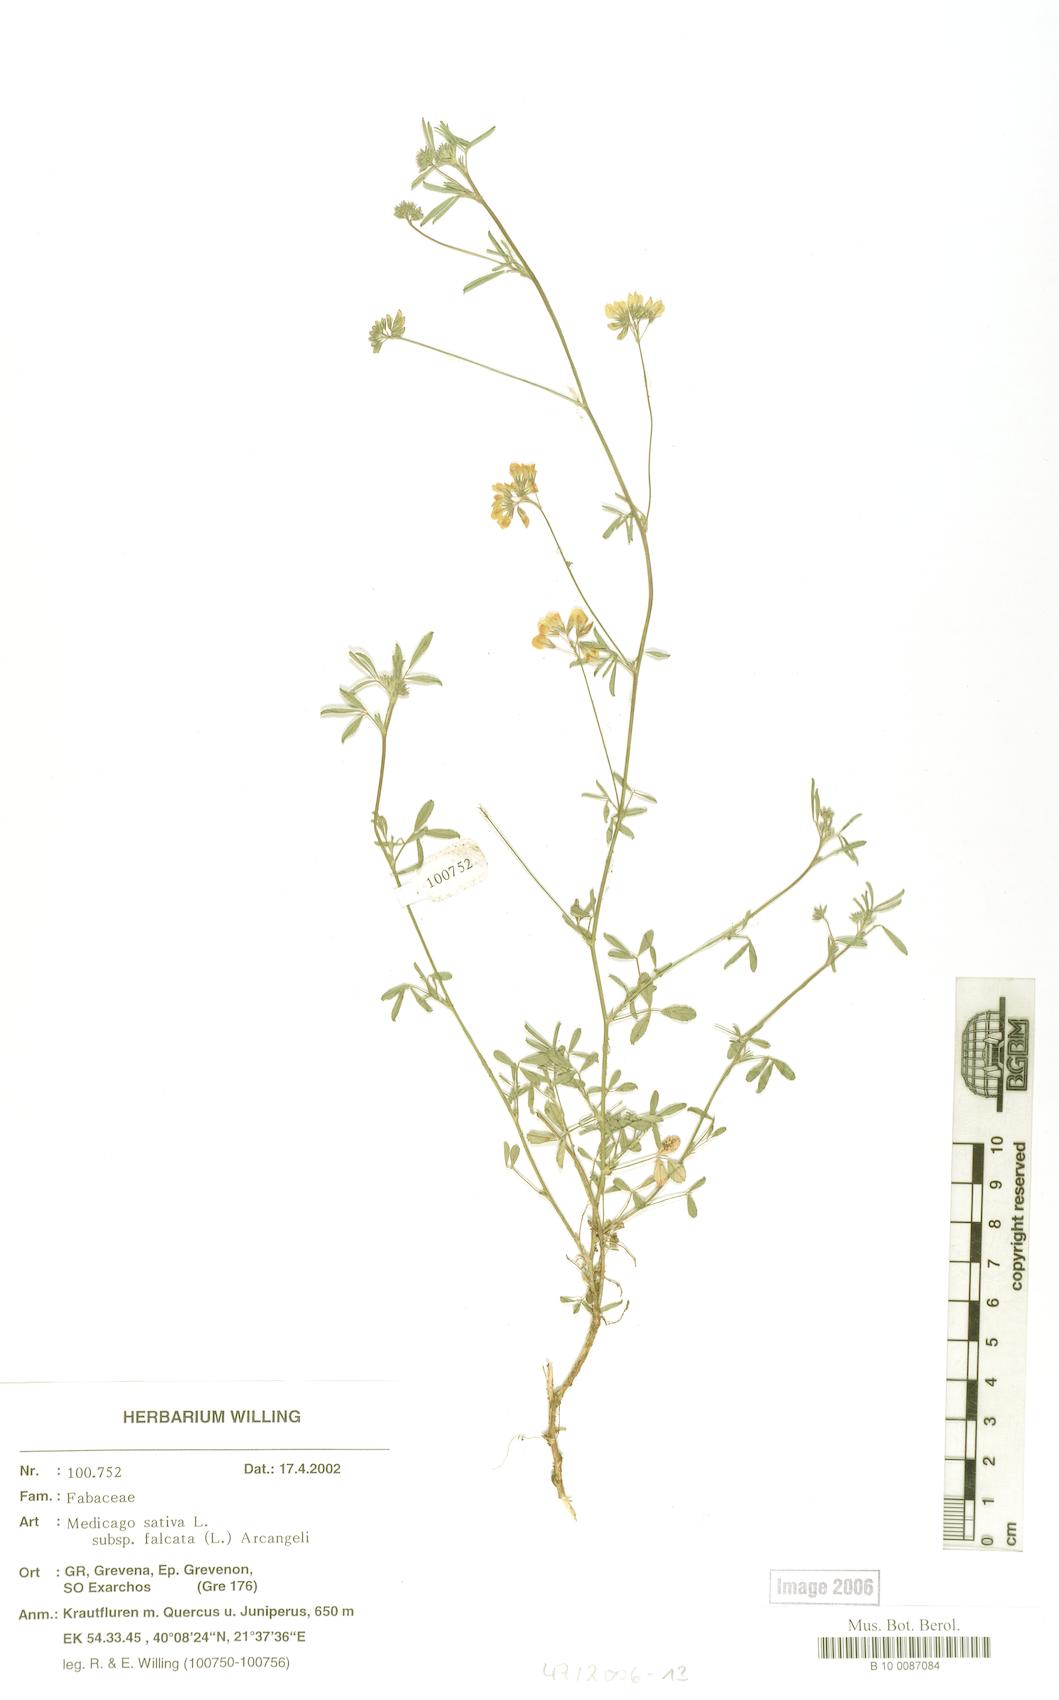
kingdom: Plantae
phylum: Tracheophyta
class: Magnoliopsida
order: Fabales
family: Fabaceae
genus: Medicago
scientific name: Medicago falcata
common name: Sickle medick
